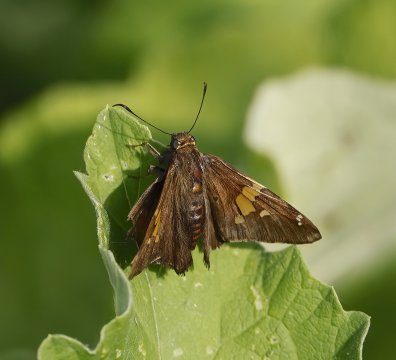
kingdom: Animalia
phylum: Arthropoda
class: Insecta
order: Lepidoptera
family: Hesperiidae
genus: Epargyreus
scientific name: Epargyreus clarus
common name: Silver-spotted Skipper
